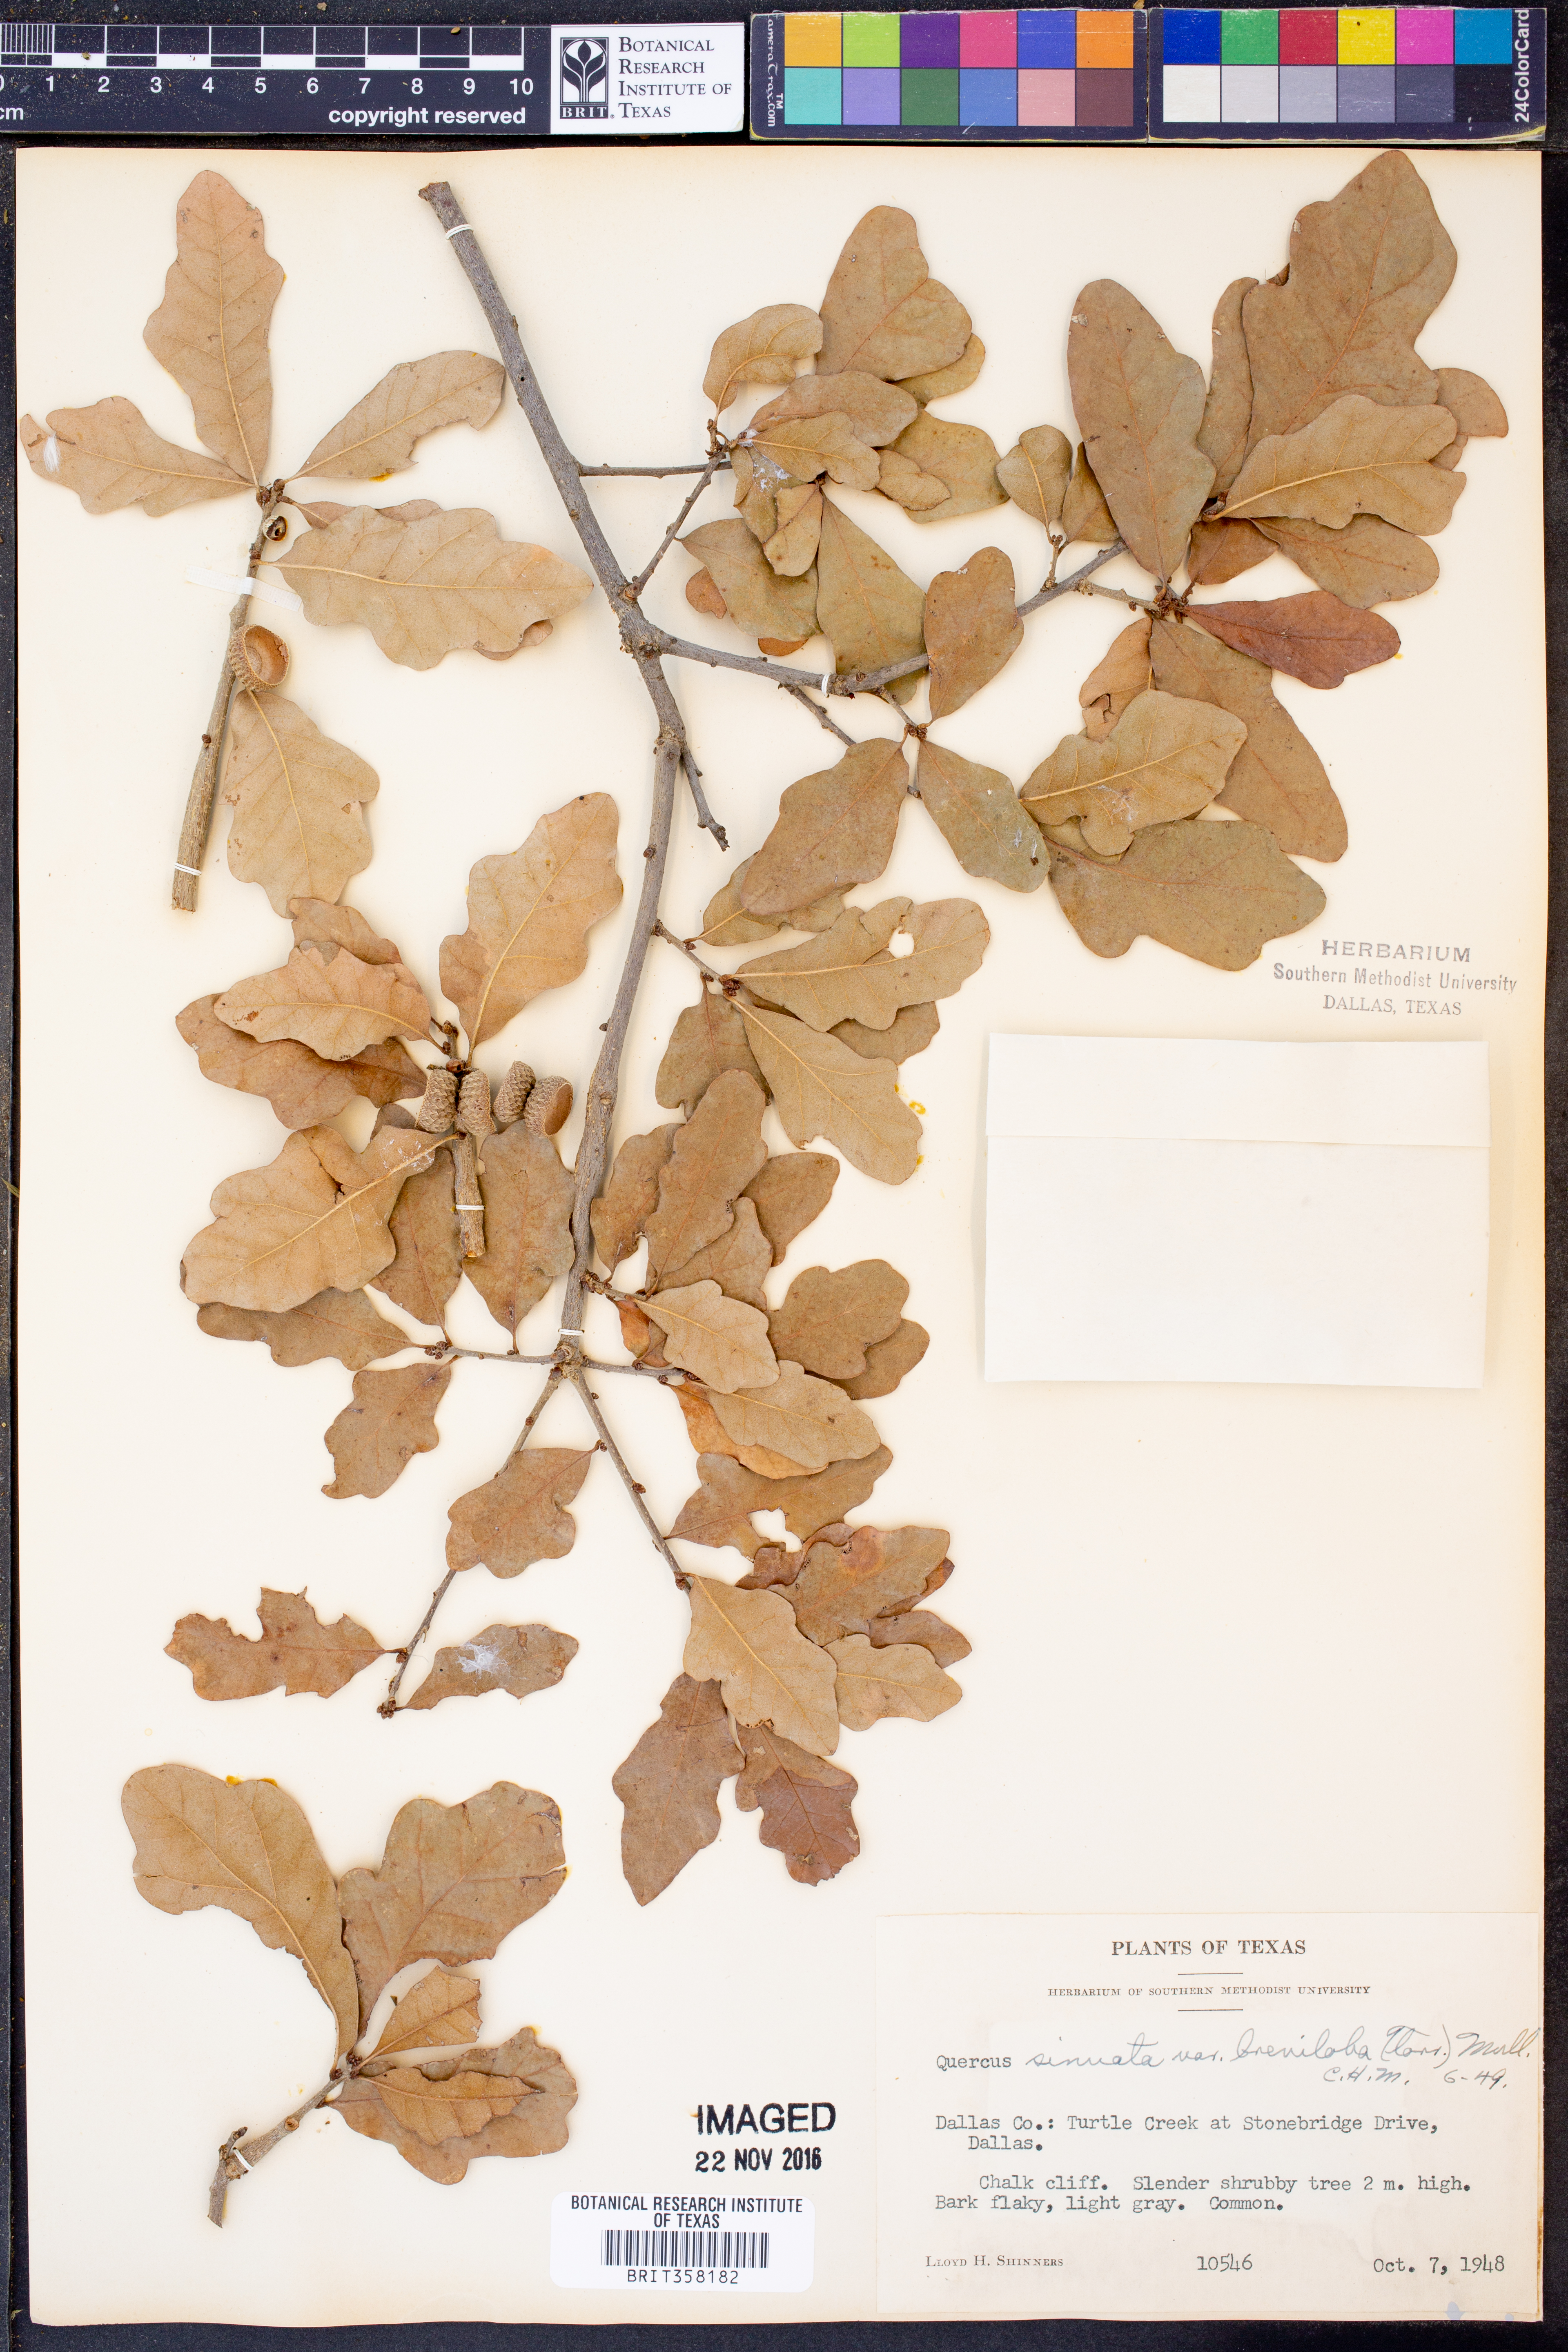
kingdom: Plantae
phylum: Tracheophyta
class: Magnoliopsida
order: Fagales
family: Fagaceae
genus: Quercus
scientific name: Quercus sinuata
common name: Durand oak
